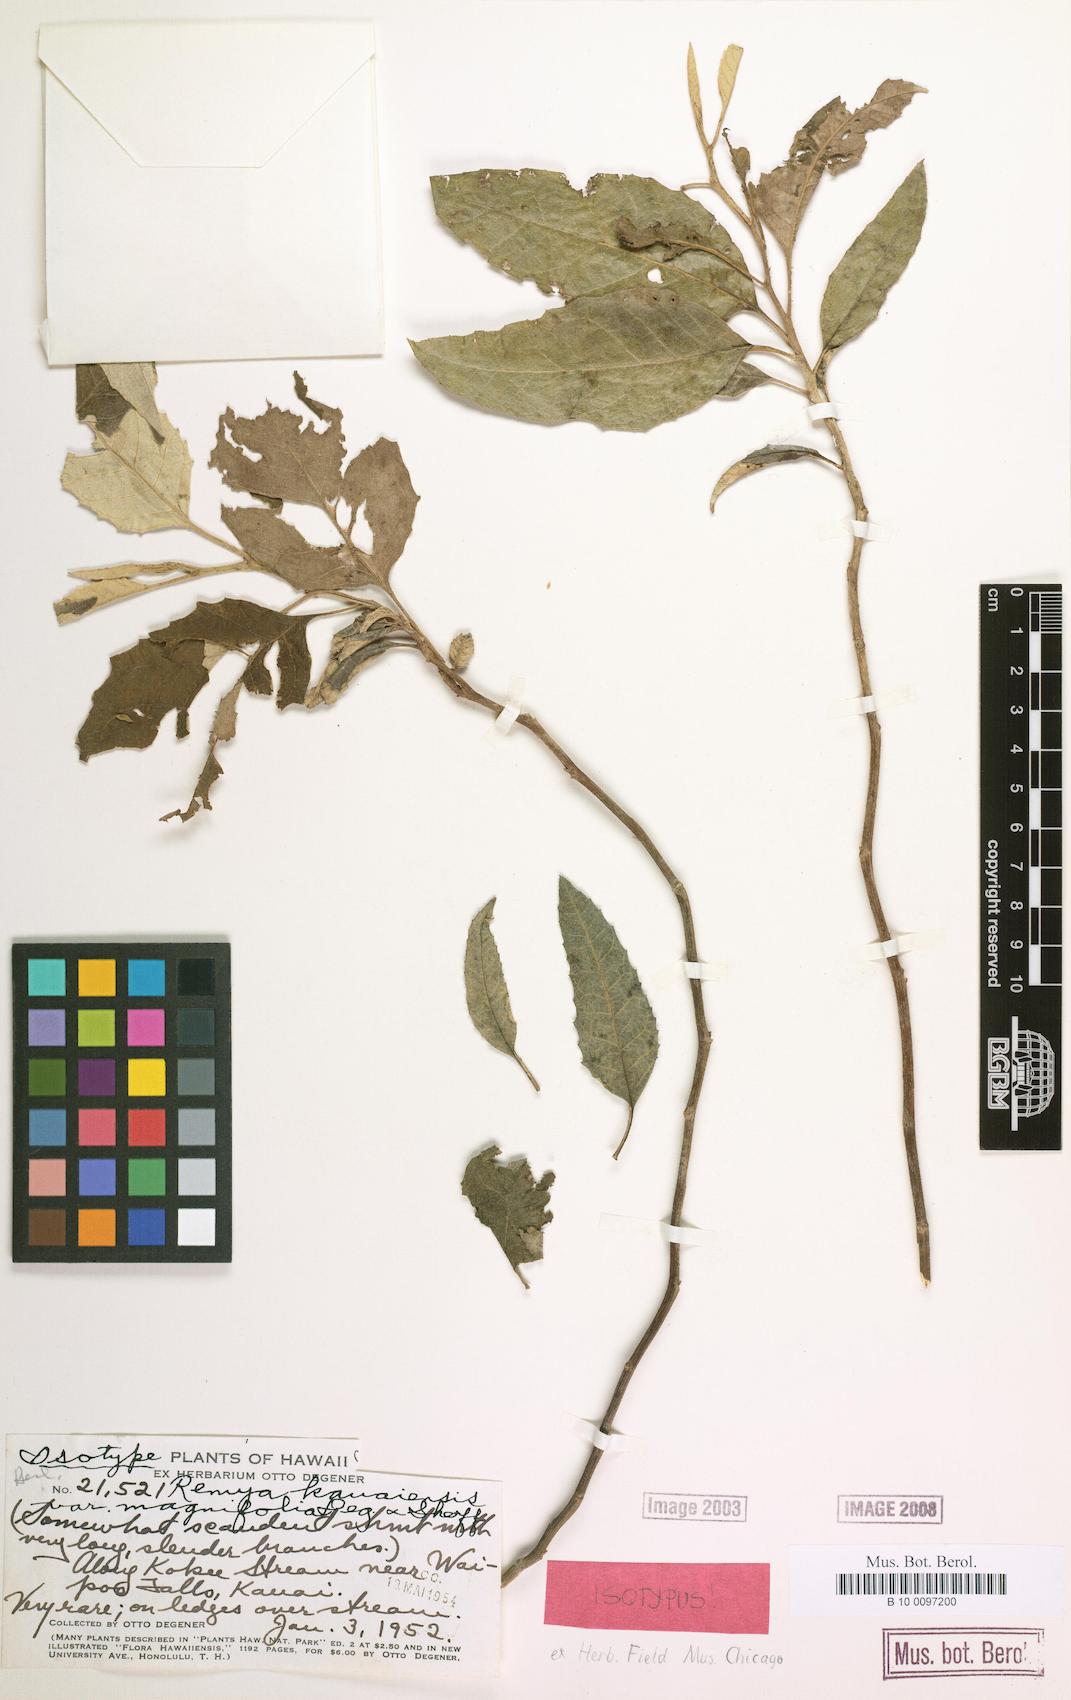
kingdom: Plantae
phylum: Tracheophyta
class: Magnoliopsida
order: Asterales
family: Asteraceae
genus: Remya
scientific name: Remya kauaiensis
